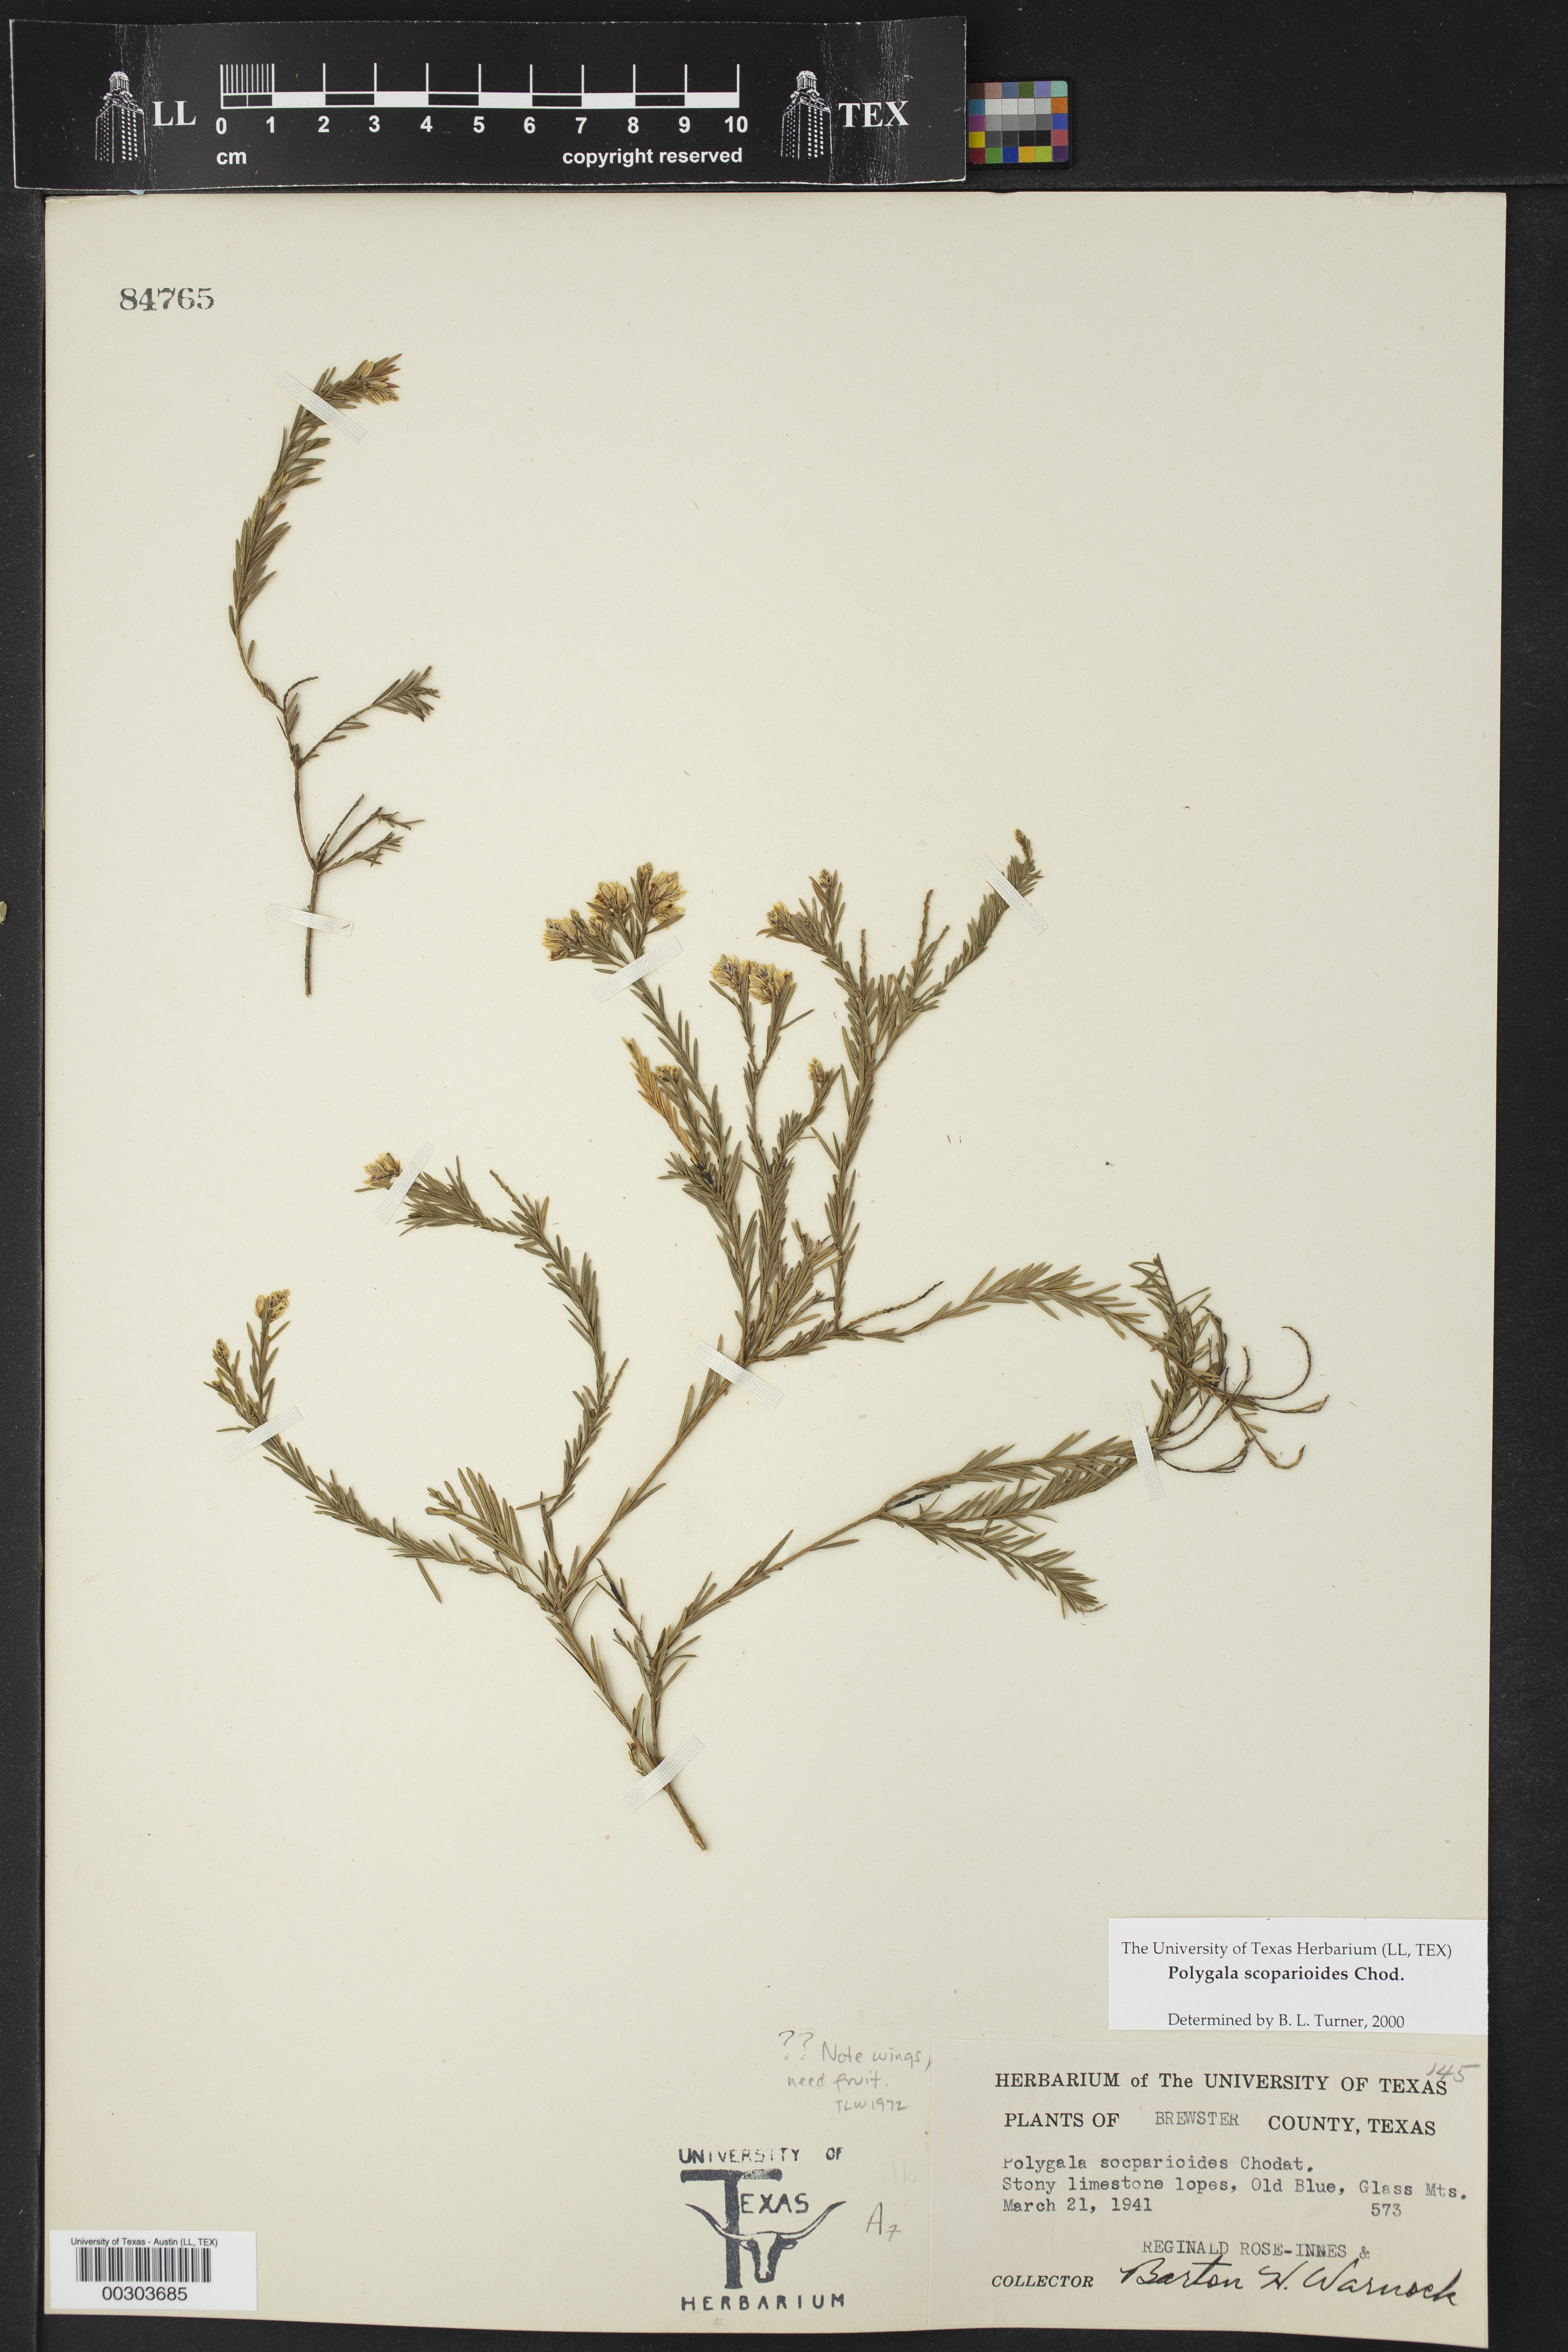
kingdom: Plantae
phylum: Tracheophyta
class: Magnoliopsida
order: Fabales
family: Polygalaceae
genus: Polygala
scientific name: Polygala scoparioides
